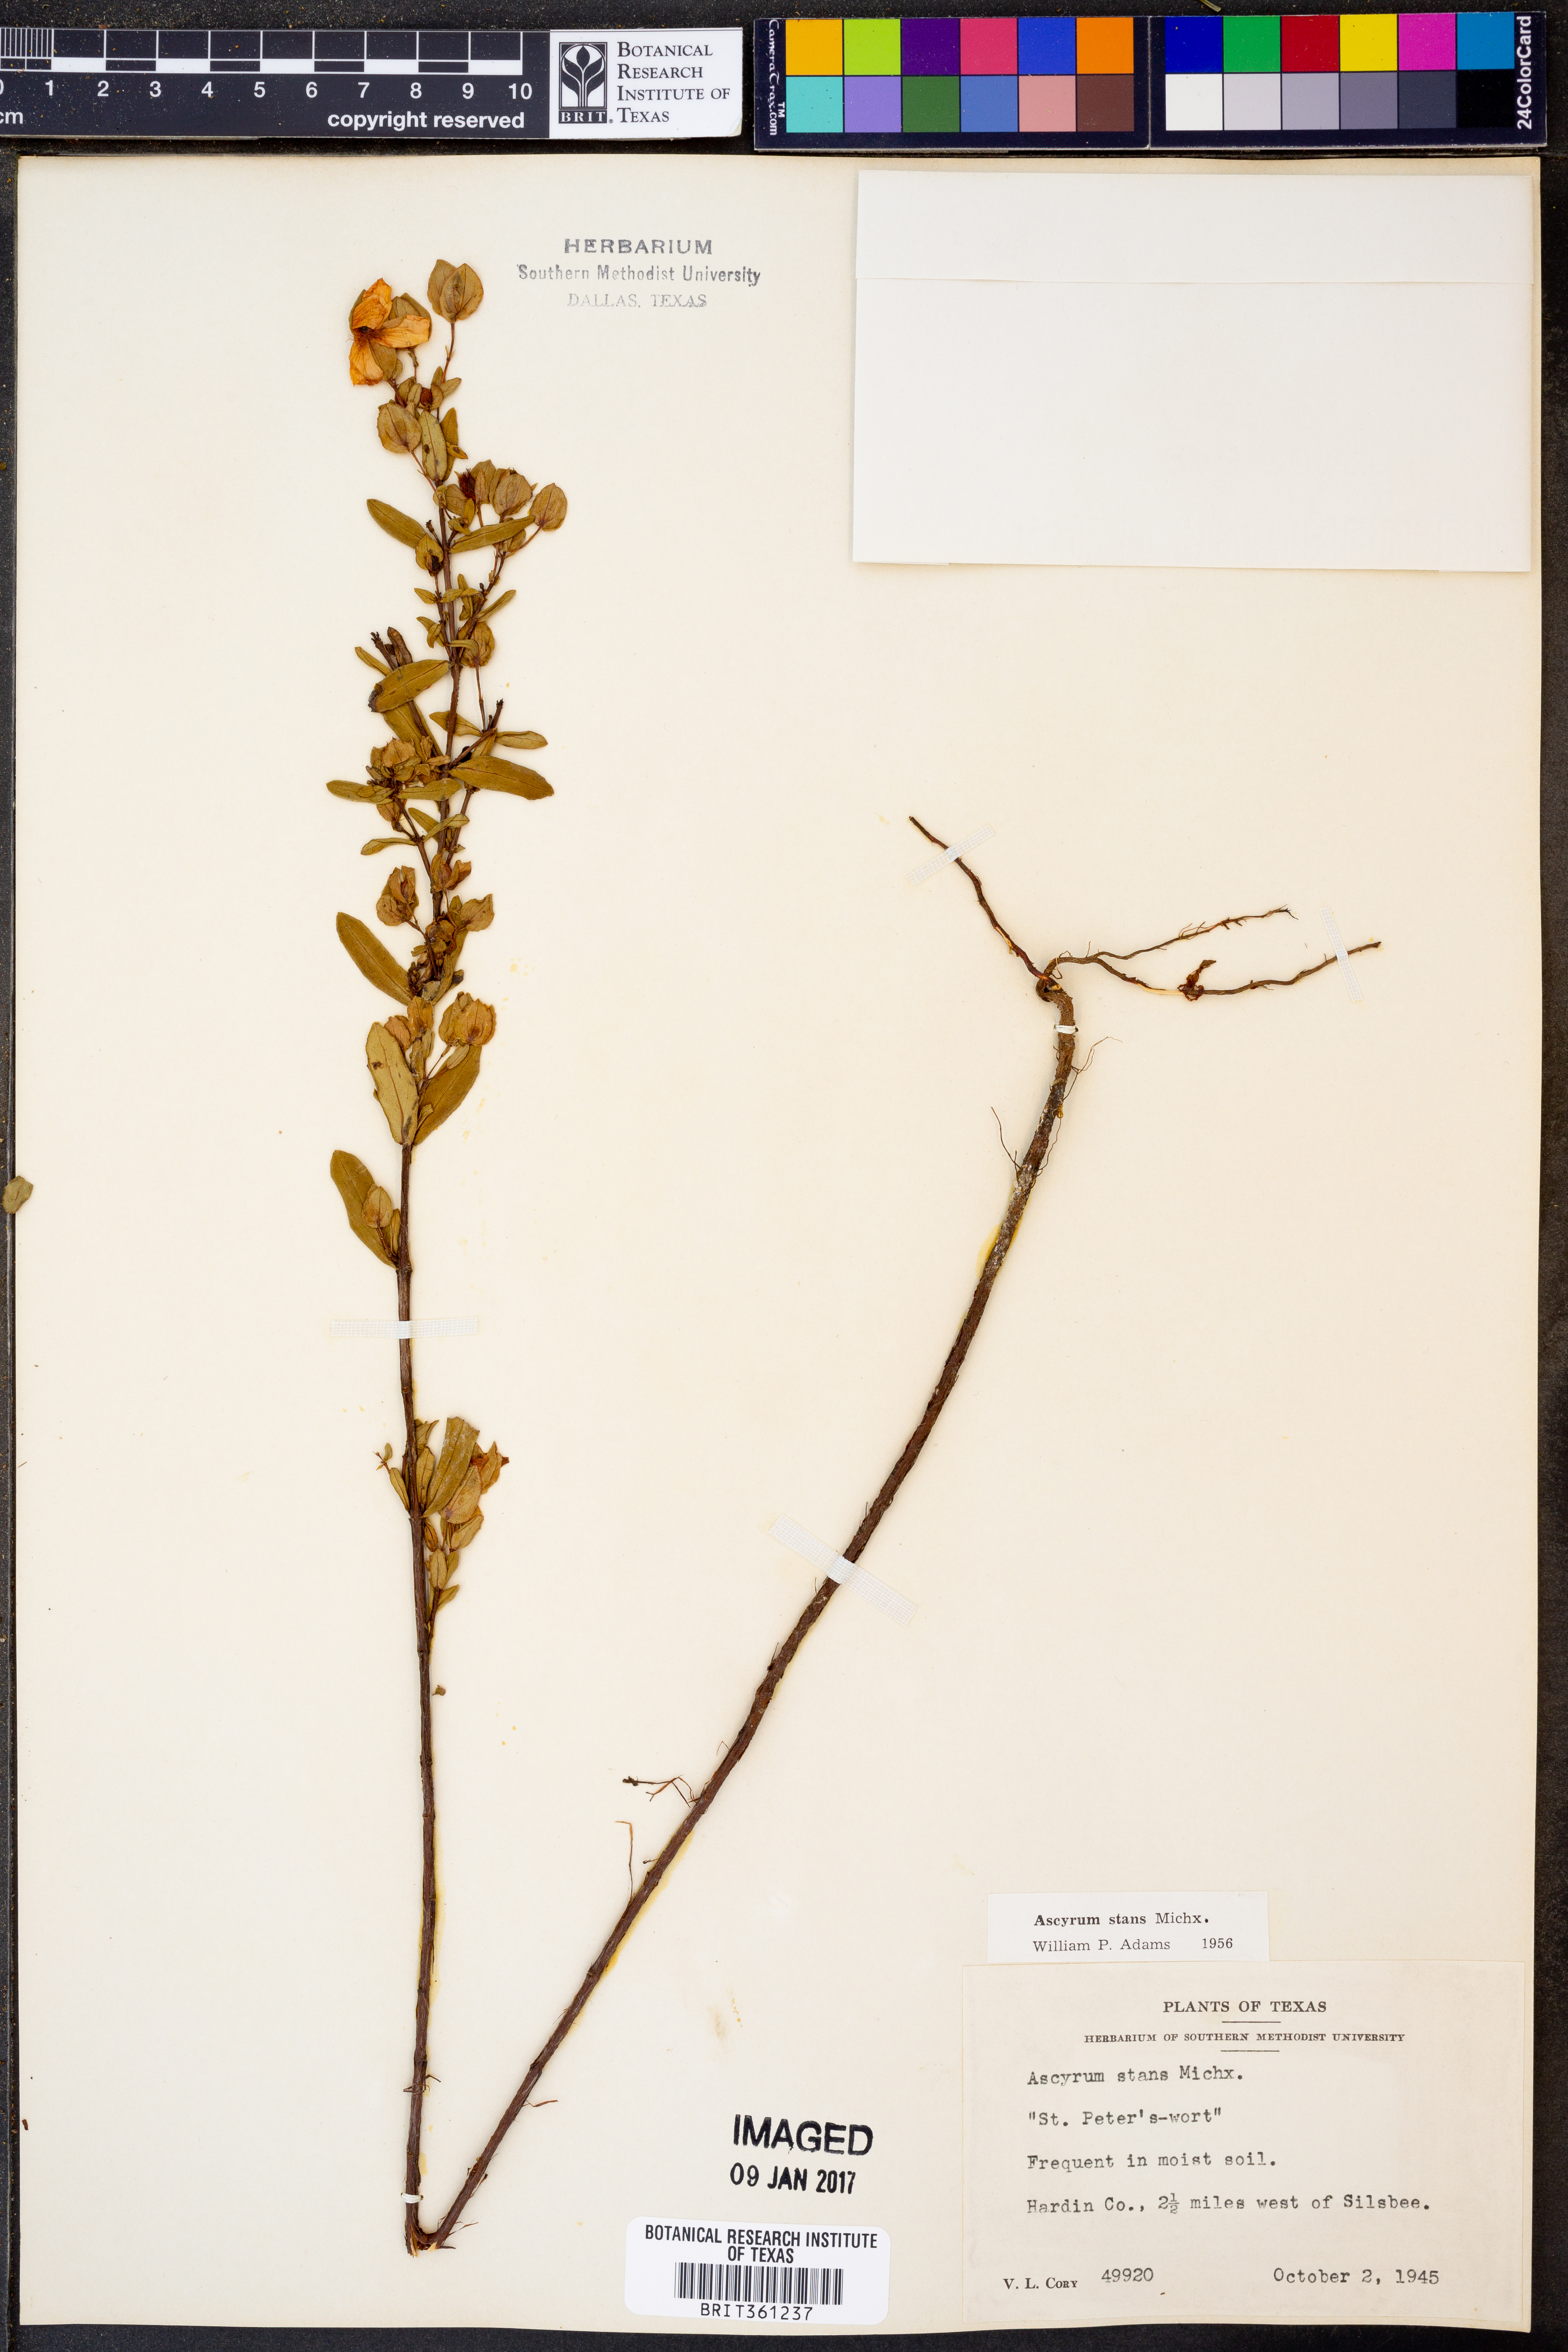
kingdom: Plantae
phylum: Tracheophyta
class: Magnoliopsida
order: Malpighiales
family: Hypericaceae
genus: Hypericum
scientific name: Hypericum crux-andreae
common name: St.-peter's-wort
